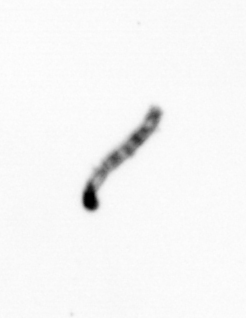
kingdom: Chromista
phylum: Ochrophyta
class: Bacillariophyceae
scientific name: Bacillariophyceae
